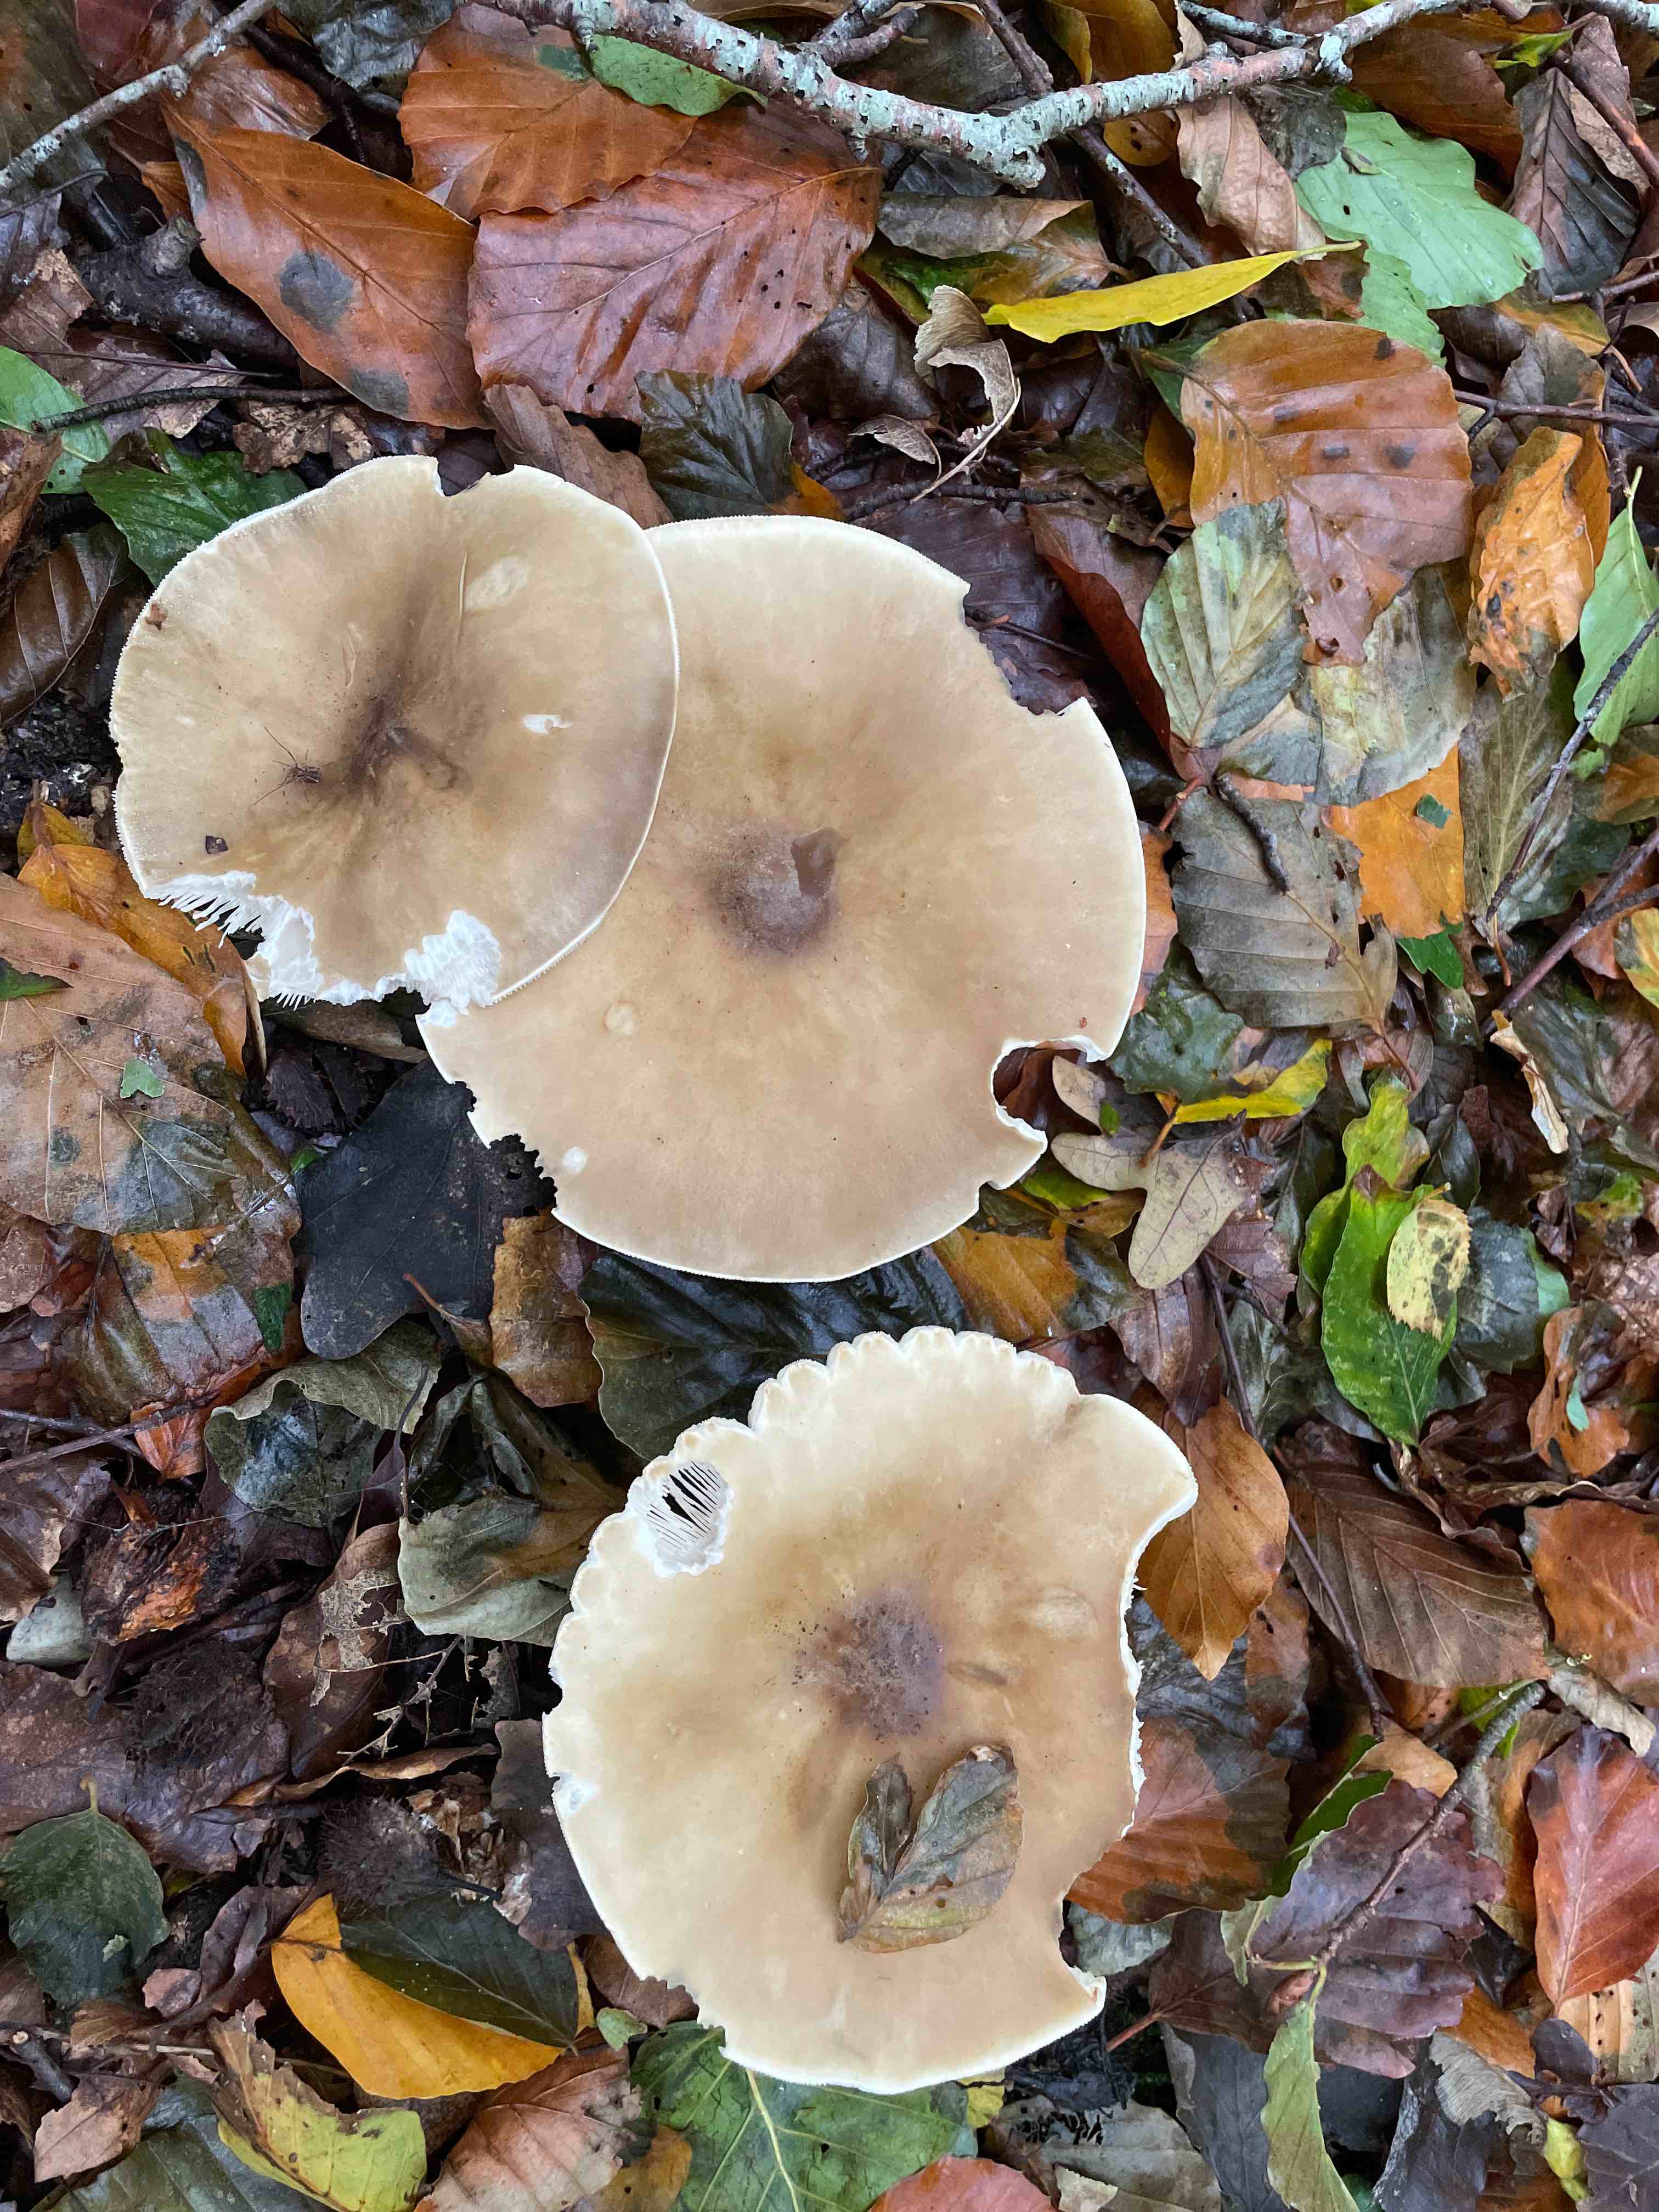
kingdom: Fungi
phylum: Basidiomycota
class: Agaricomycetes
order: Agaricales
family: Tricholomataceae
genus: Melanoleuca
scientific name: Melanoleuca
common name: munkehat
